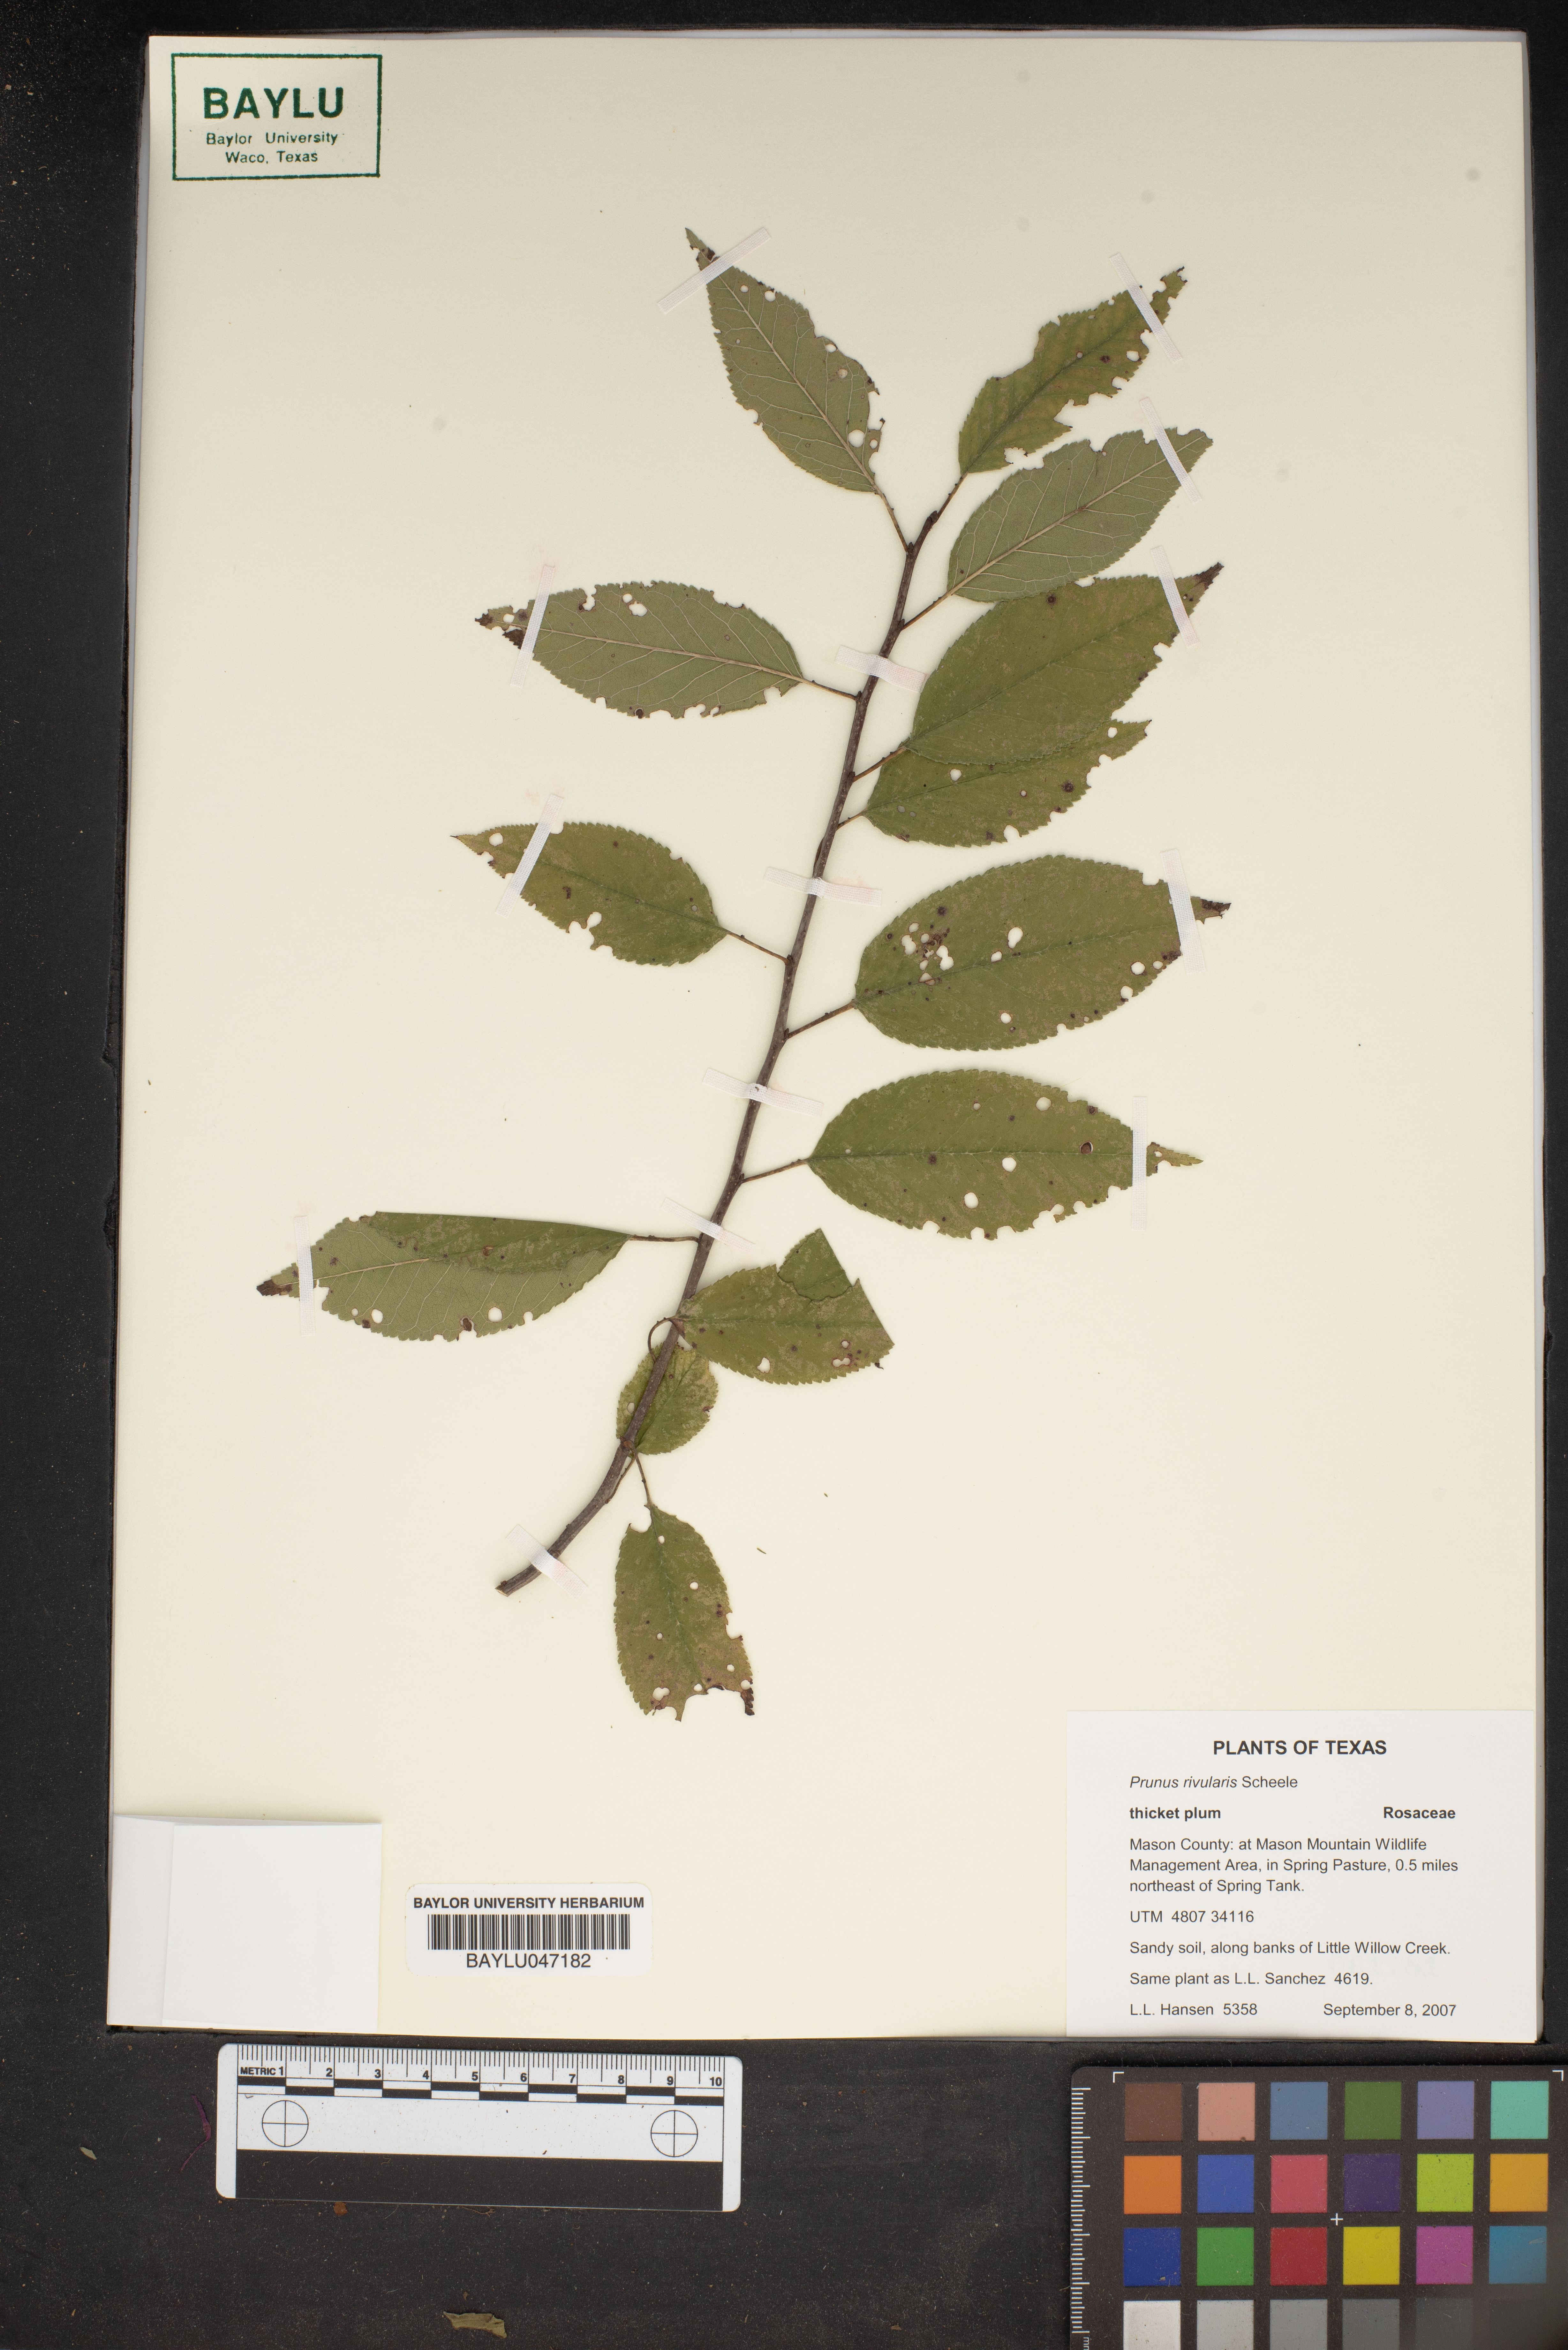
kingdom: Plantae
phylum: Tracheophyta
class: Magnoliopsida
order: Rosales
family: Rosaceae
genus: Prunus
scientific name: Prunus rivularis
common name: Creek plum
